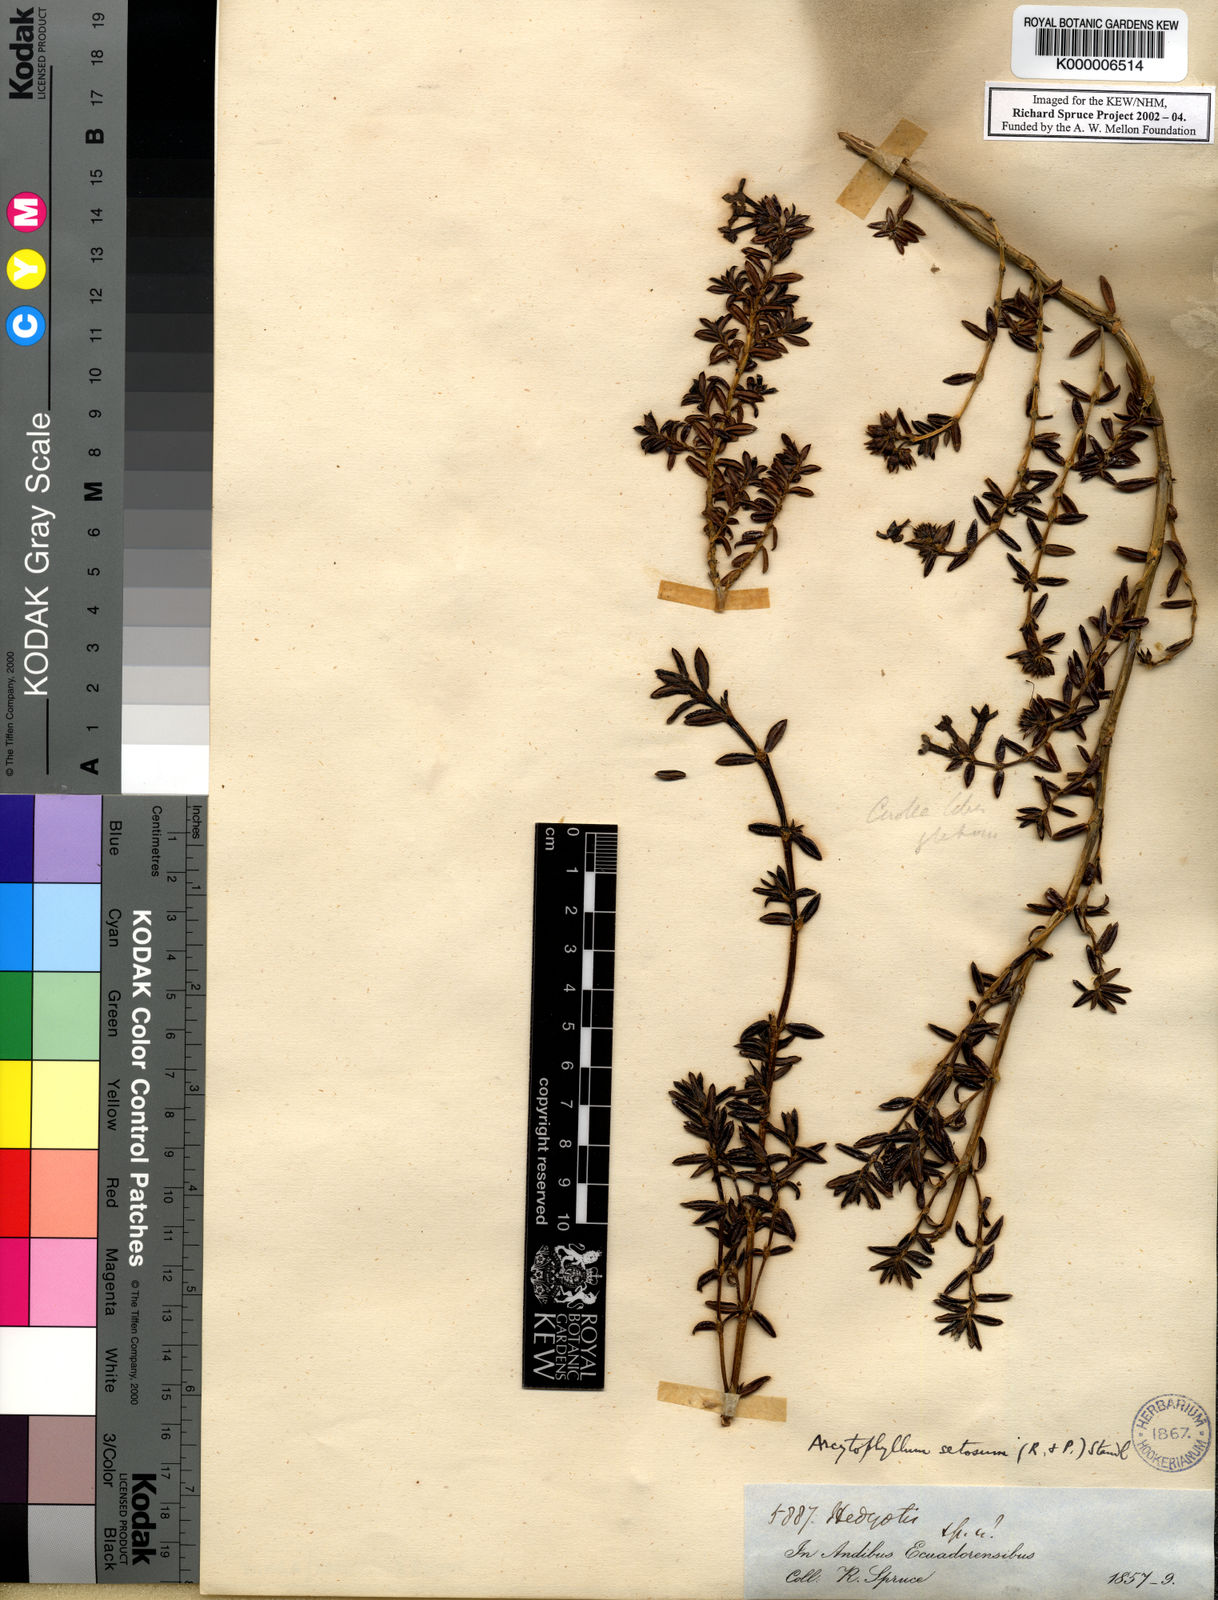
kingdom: Plantae
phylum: Tracheophyta
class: Magnoliopsida
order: Gentianales
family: Rubiaceae
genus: Arcytophyllum
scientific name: Arcytophyllum setosum
